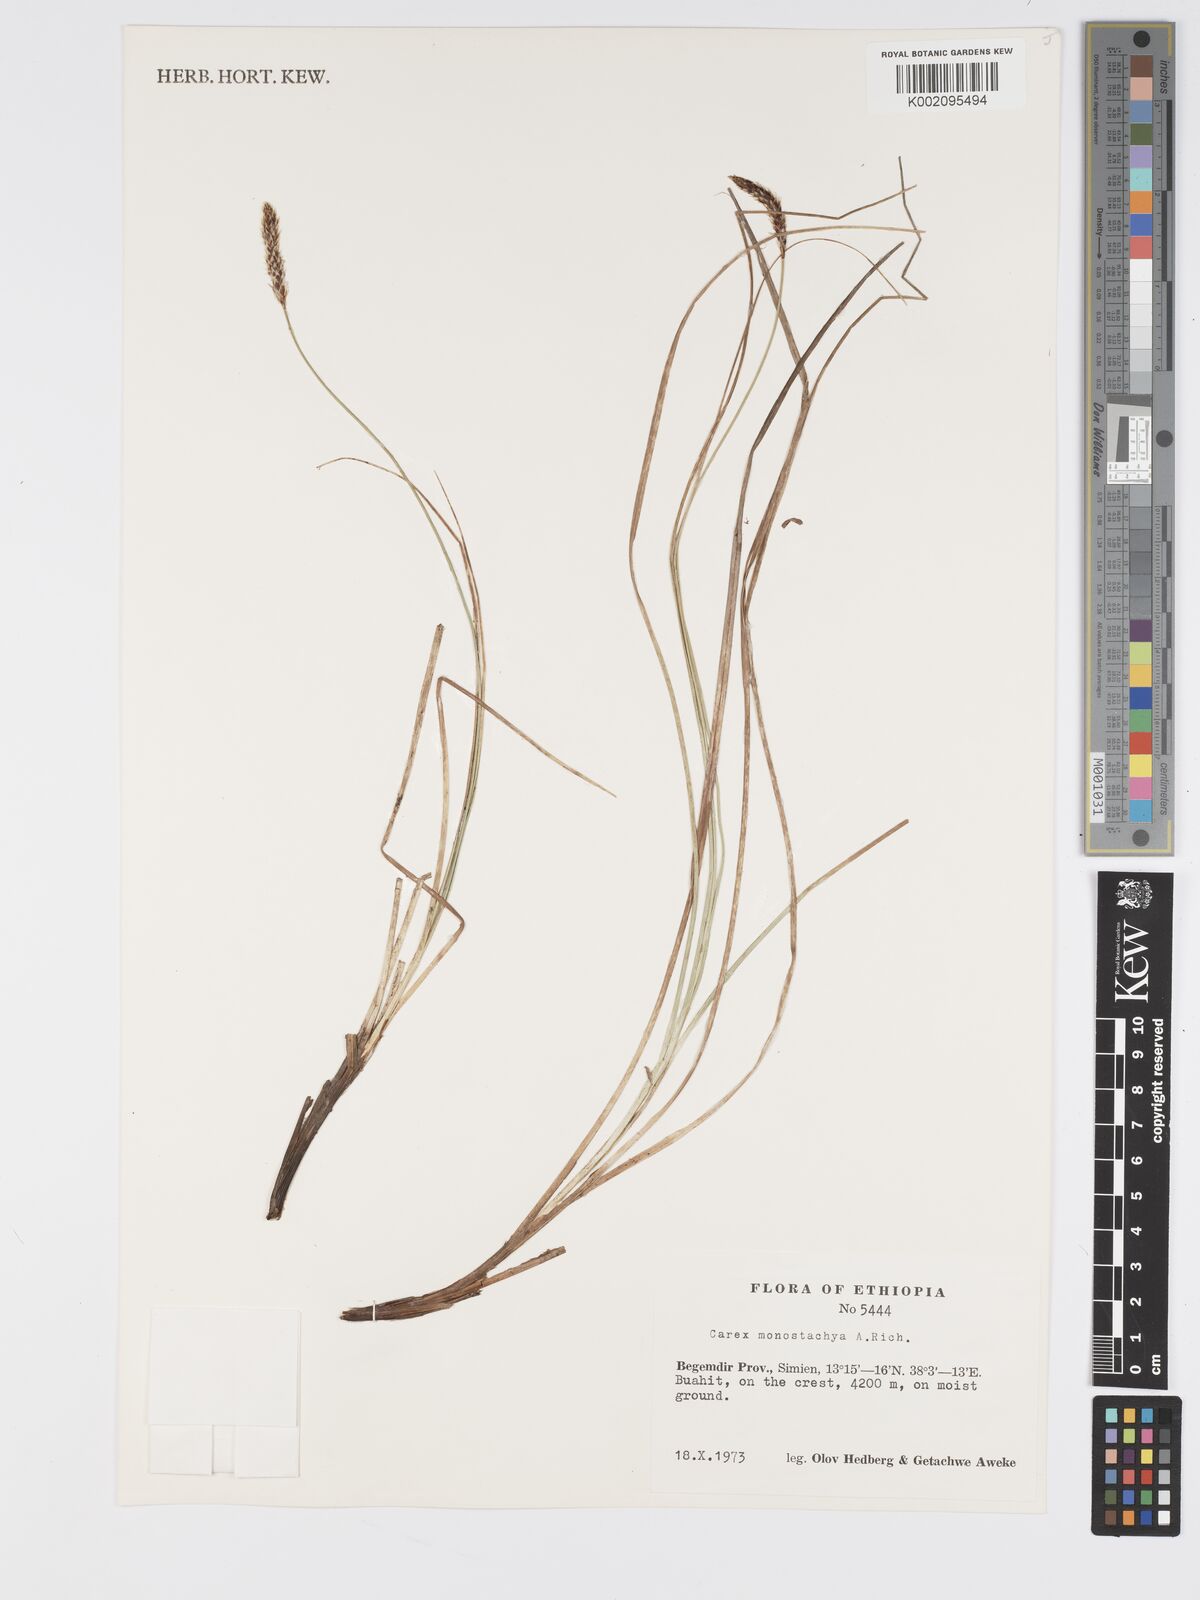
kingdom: Plantae
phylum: Tracheophyta
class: Liliopsida
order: Poales
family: Cyperaceae
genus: Carex
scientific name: Carex monostachya
